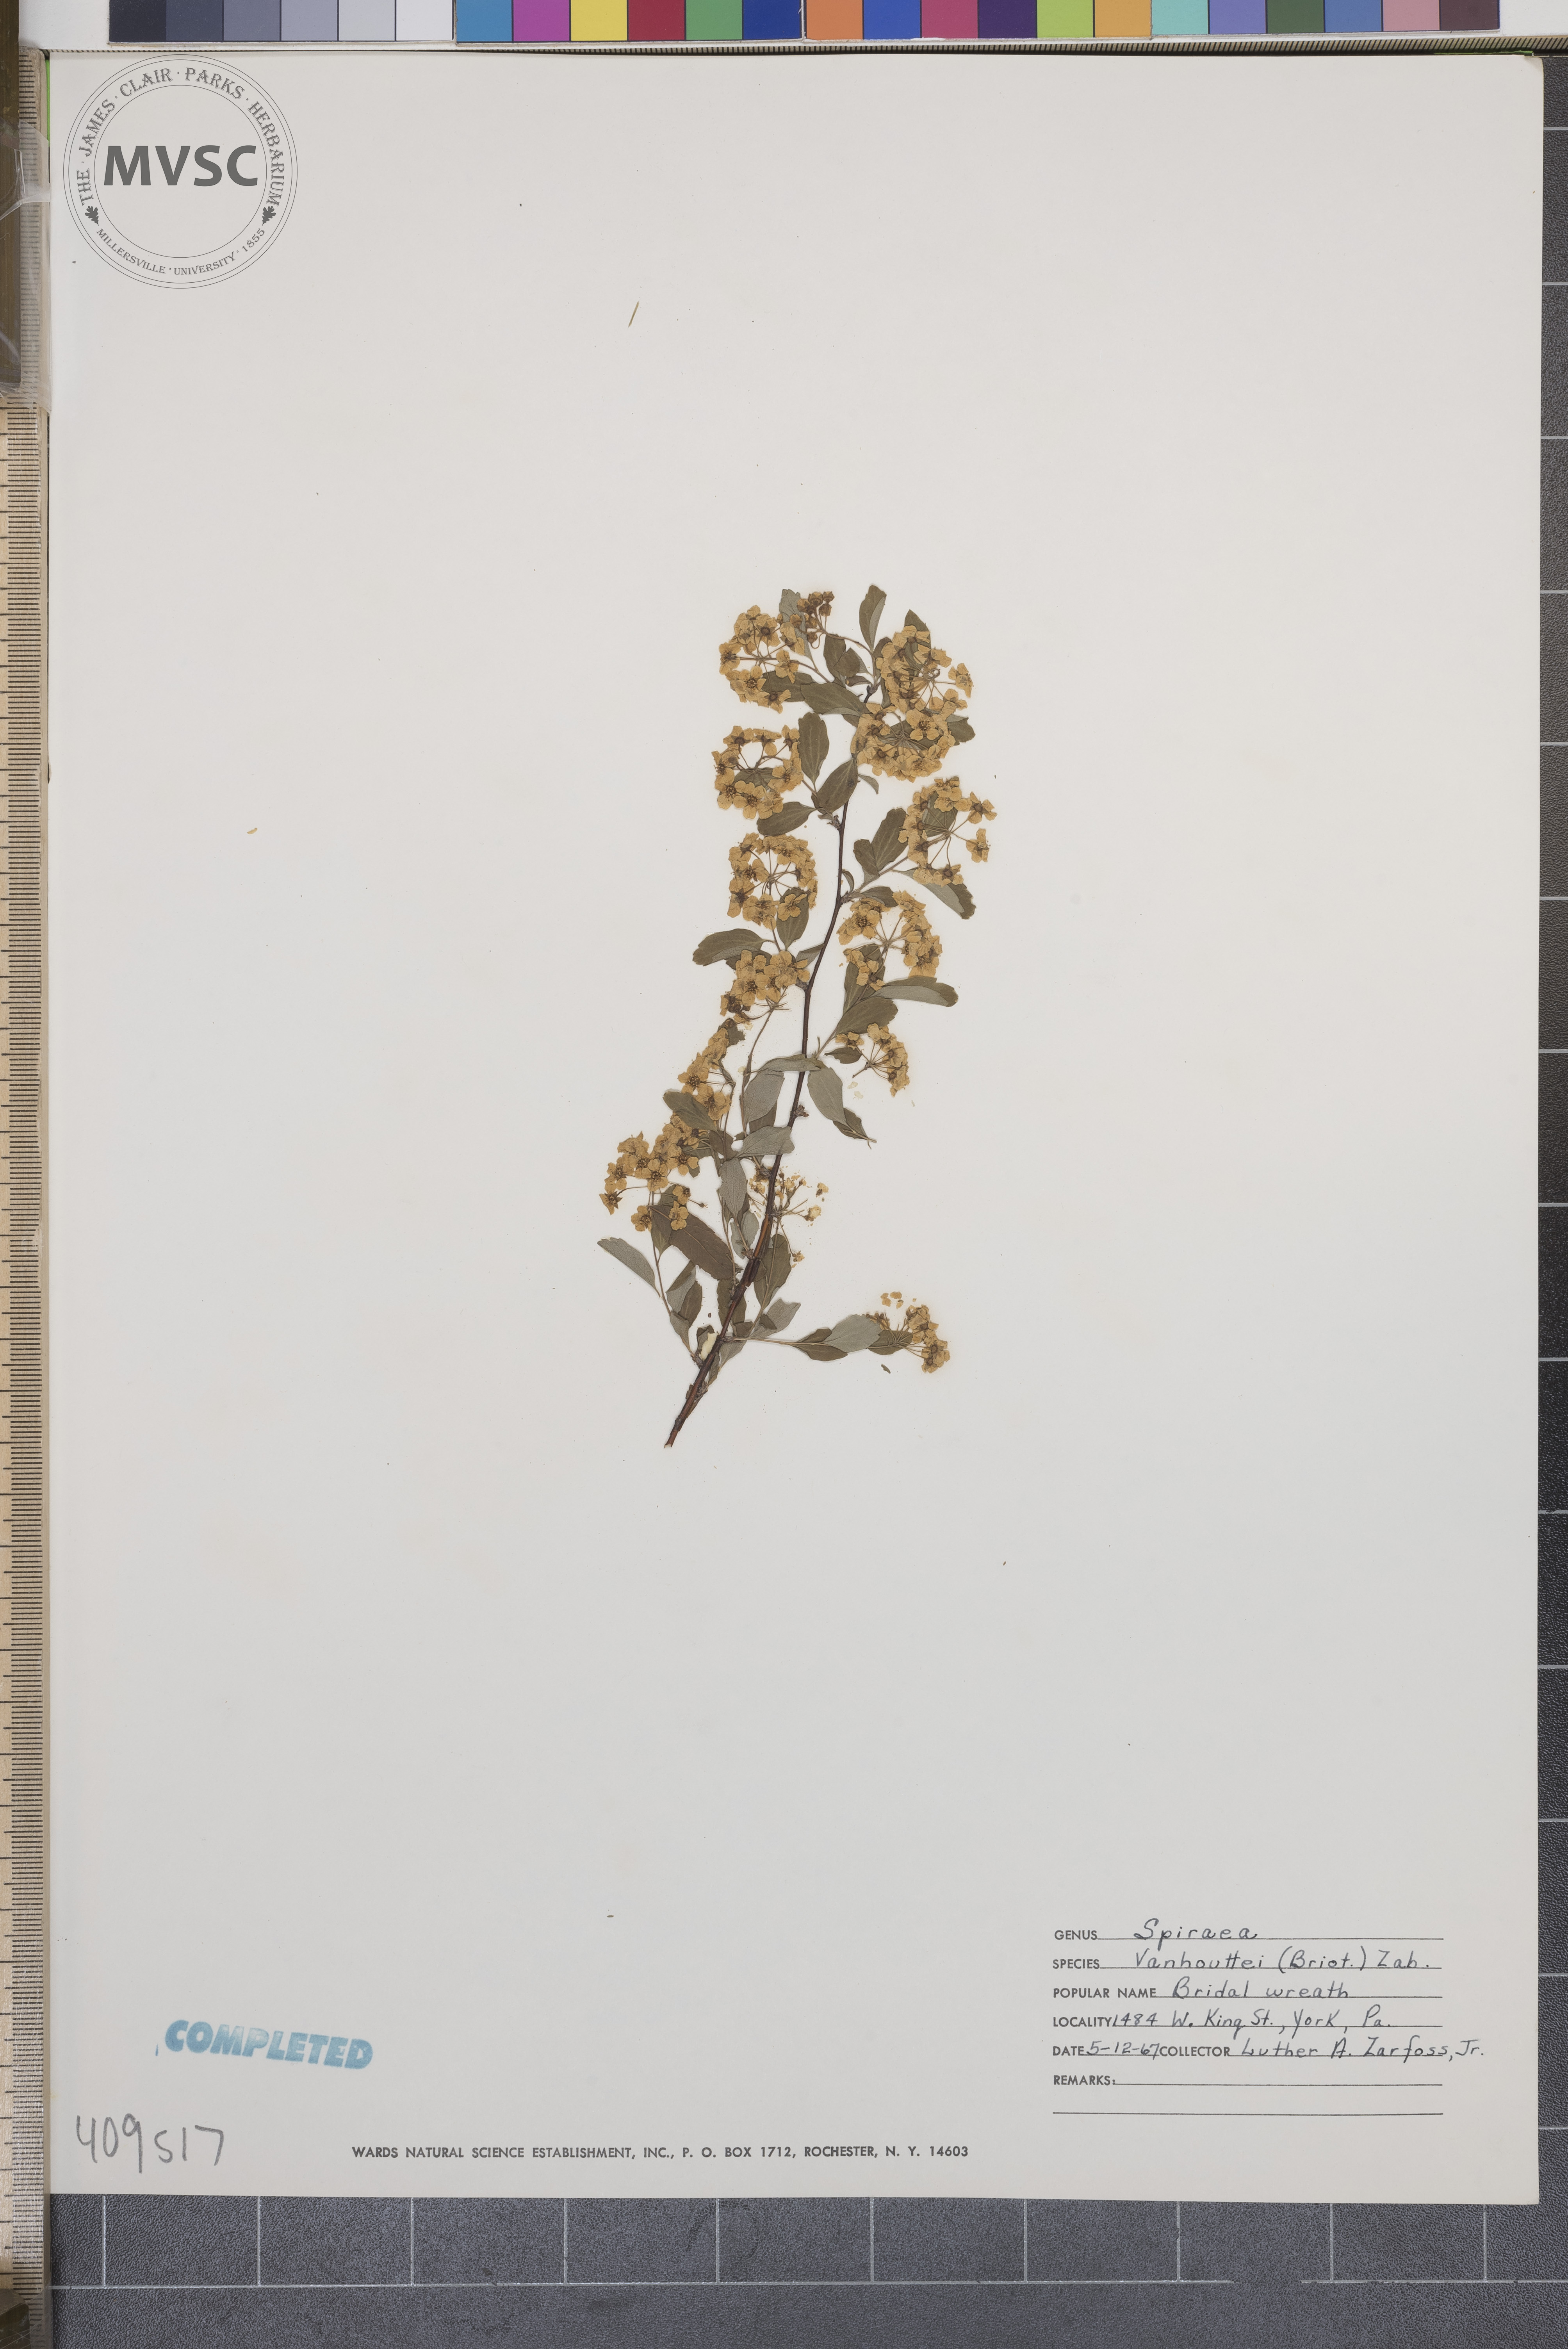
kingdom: Plantae
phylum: Tracheophyta
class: Magnoliopsida
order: Rosales
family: Rosaceae
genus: Spiraea
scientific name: Spiraea vanhouttei
